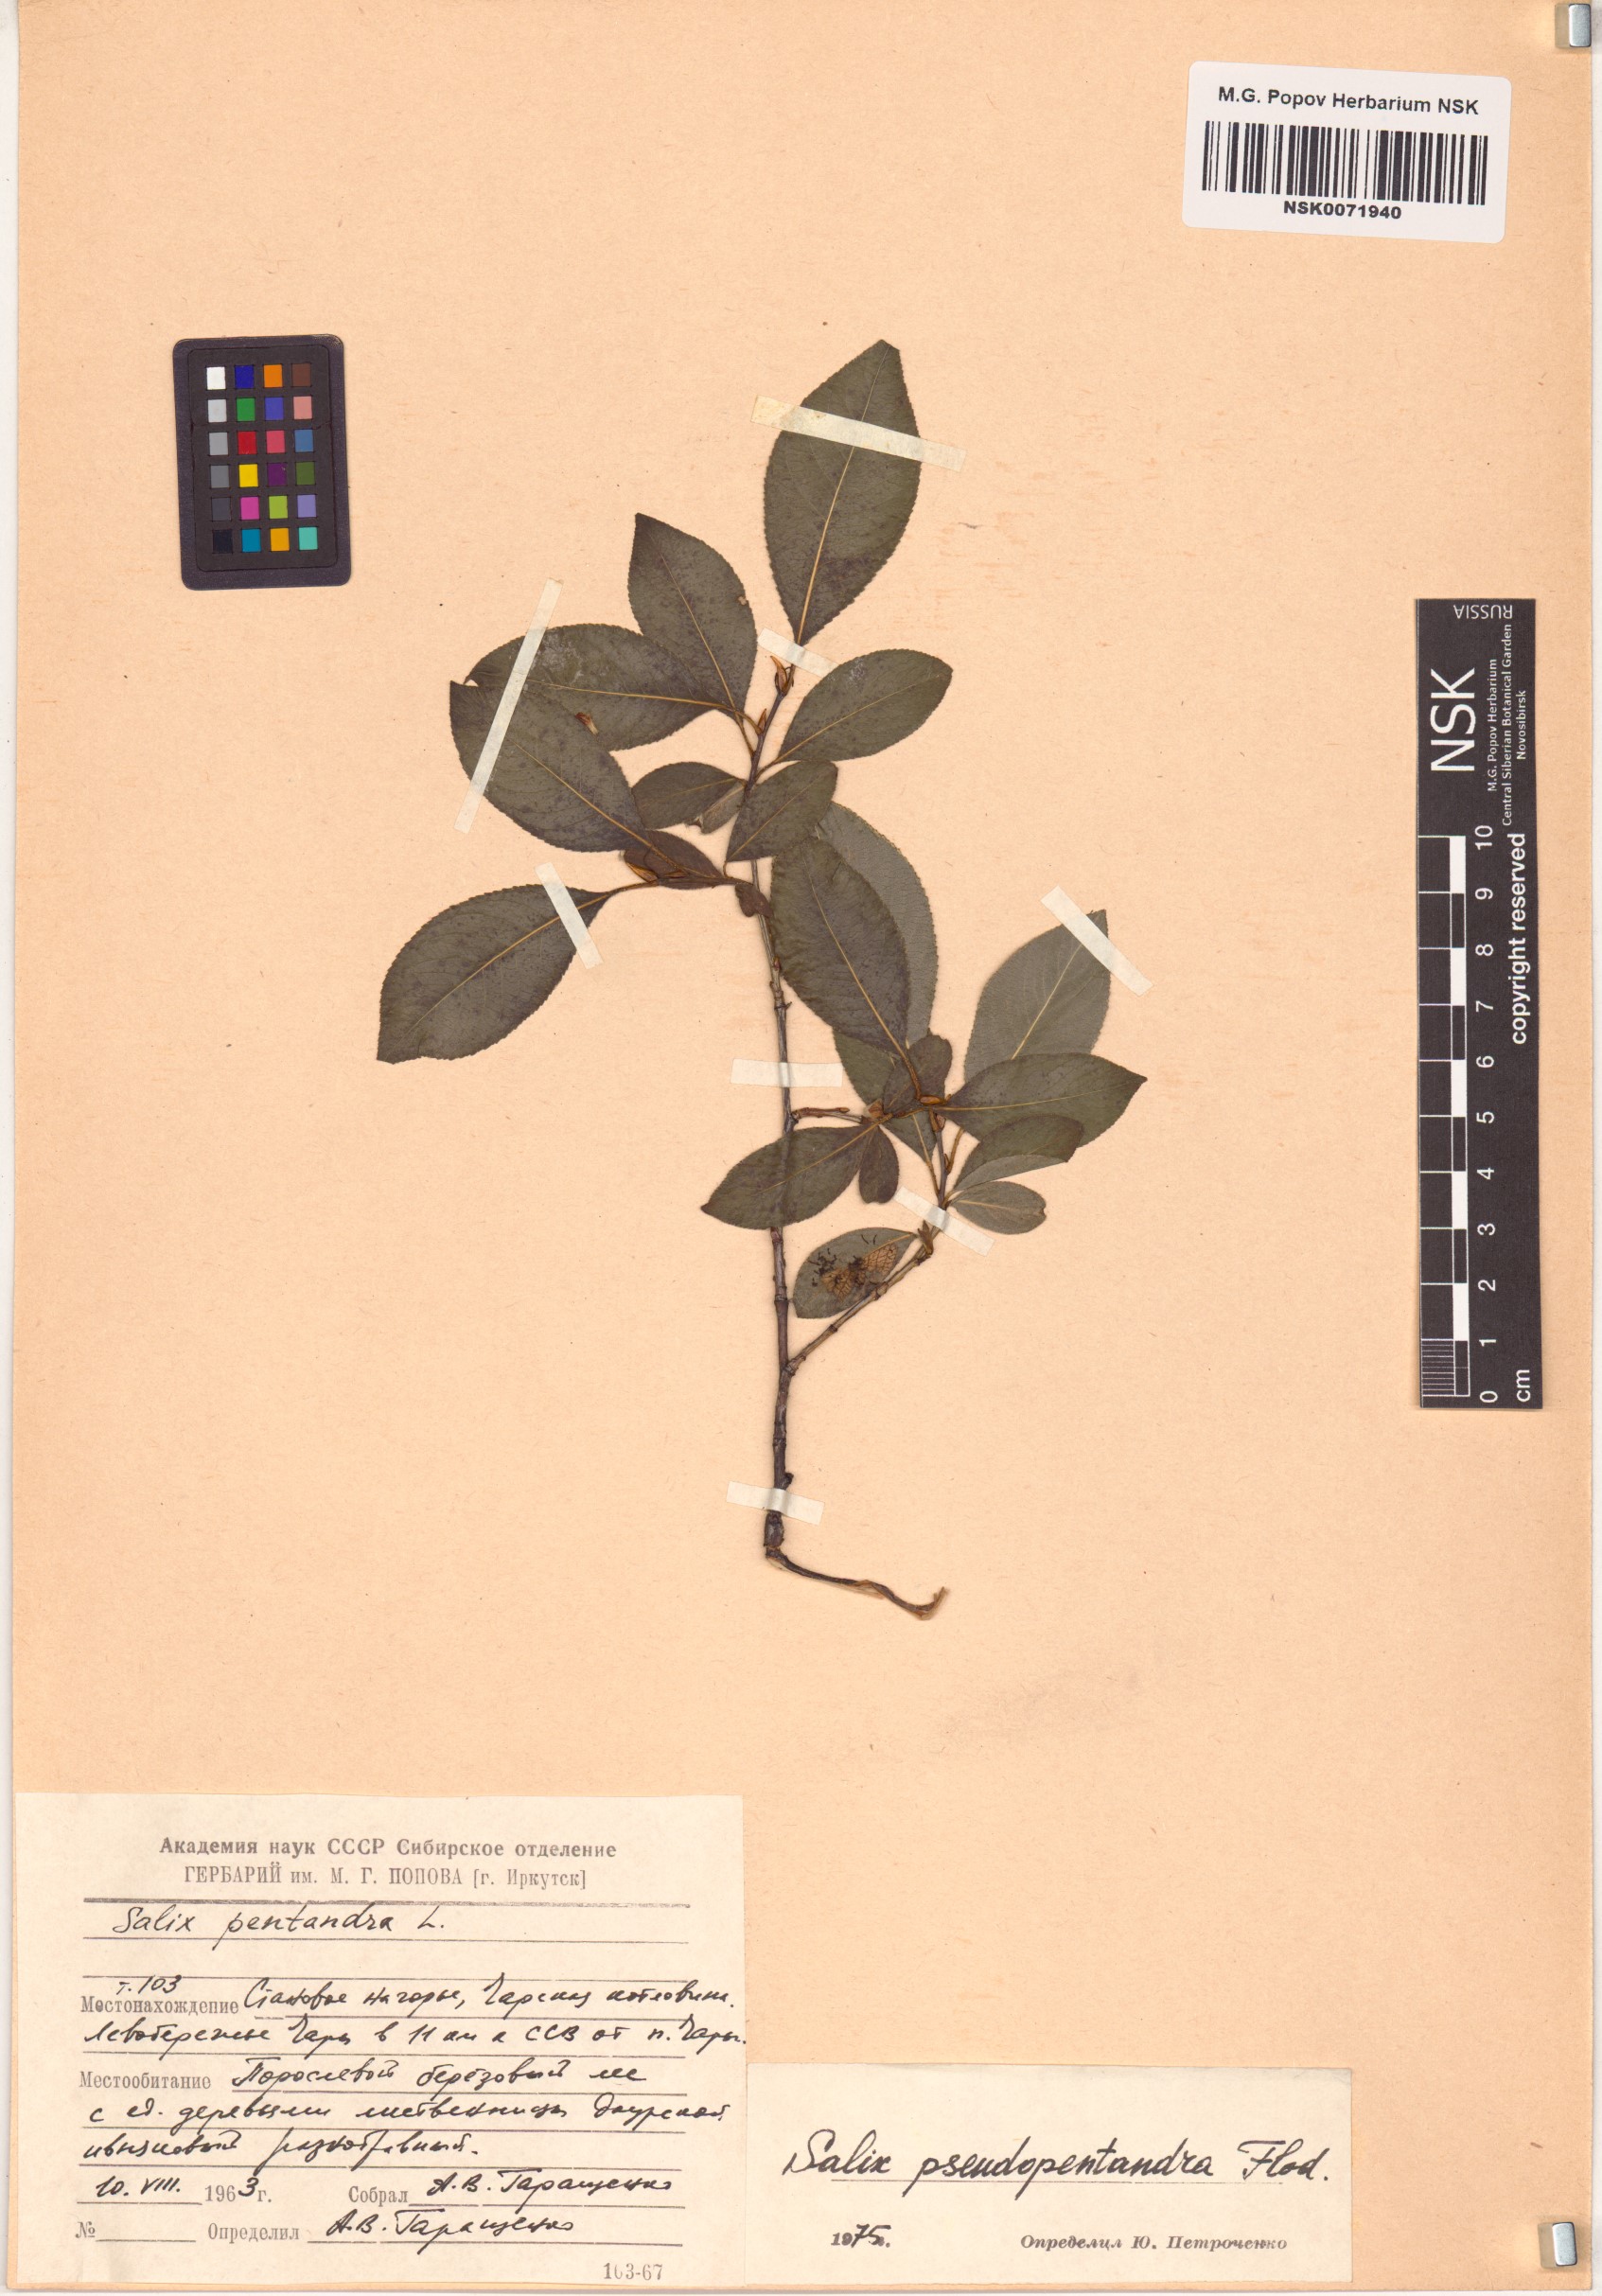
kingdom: Plantae
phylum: Tracheophyta
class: Magnoliopsida
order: Malpighiales
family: Salicaceae
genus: Salix
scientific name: Salix pseudopentandra
